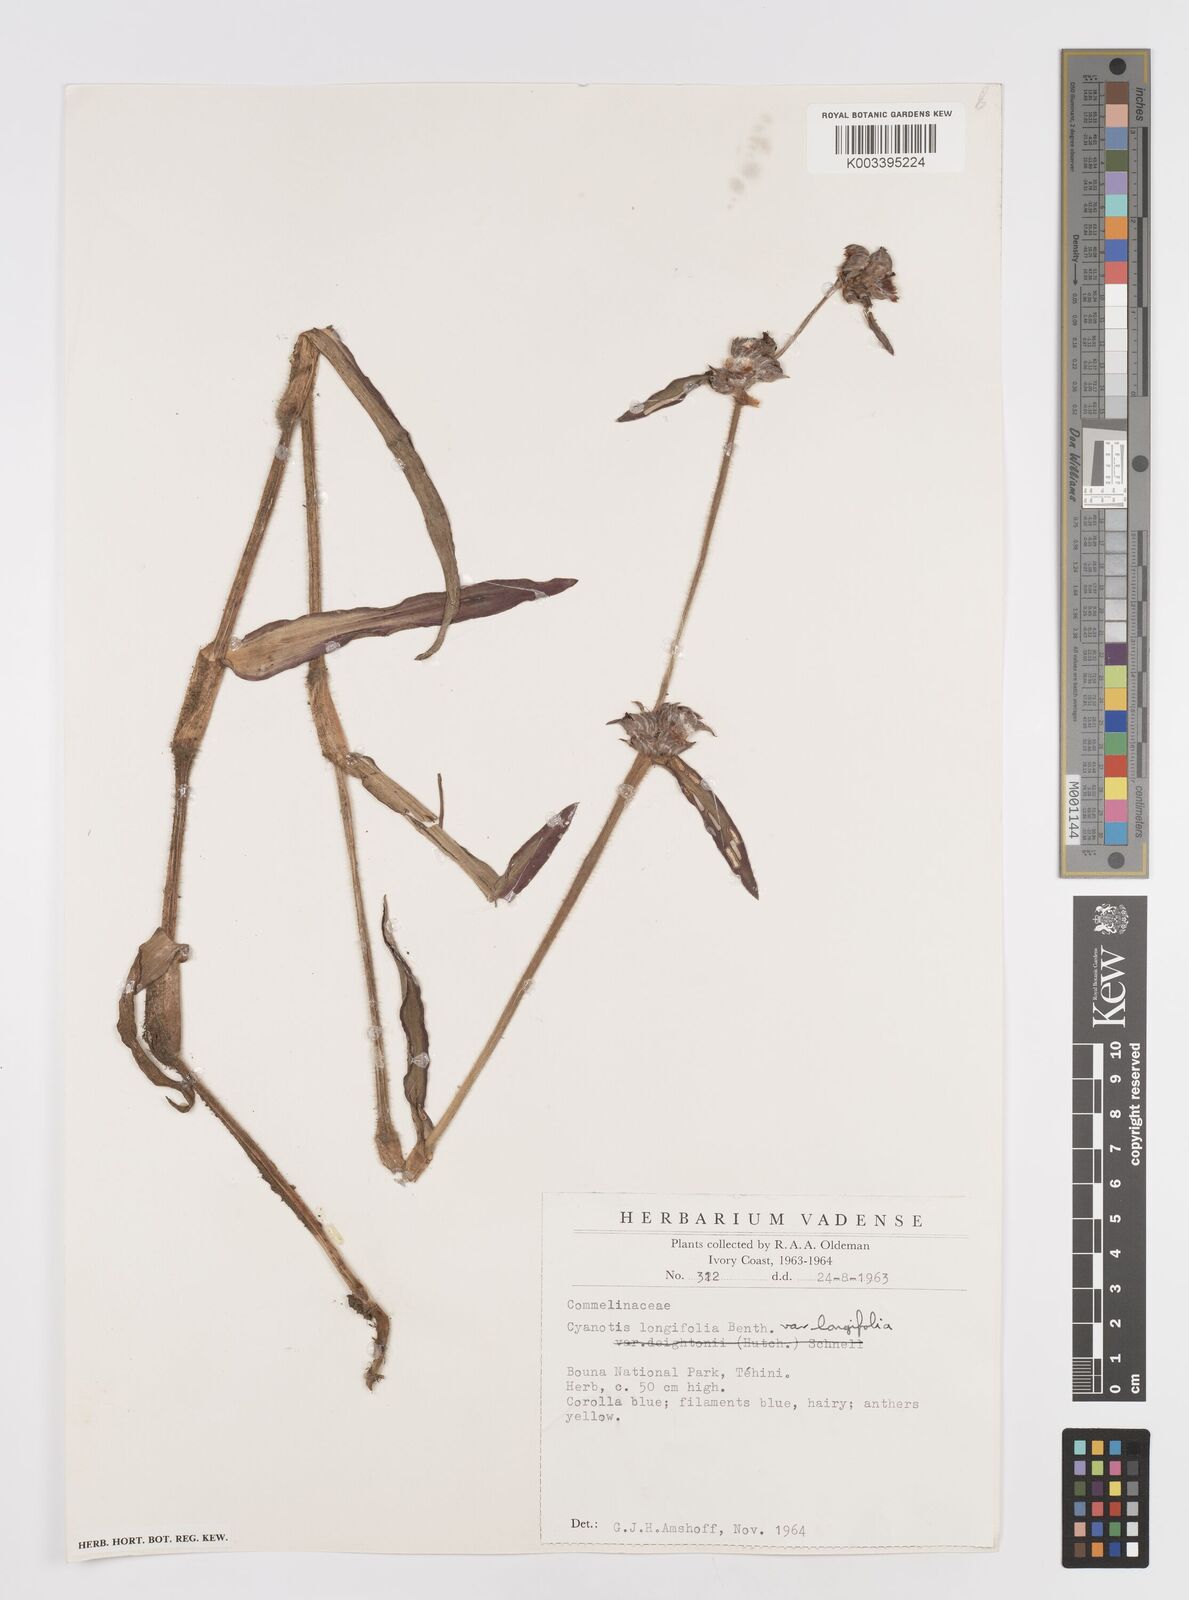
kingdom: Plantae
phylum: Tracheophyta
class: Liliopsida
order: Commelinales
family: Commelinaceae
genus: Cyanotis
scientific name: Cyanotis longifolia
